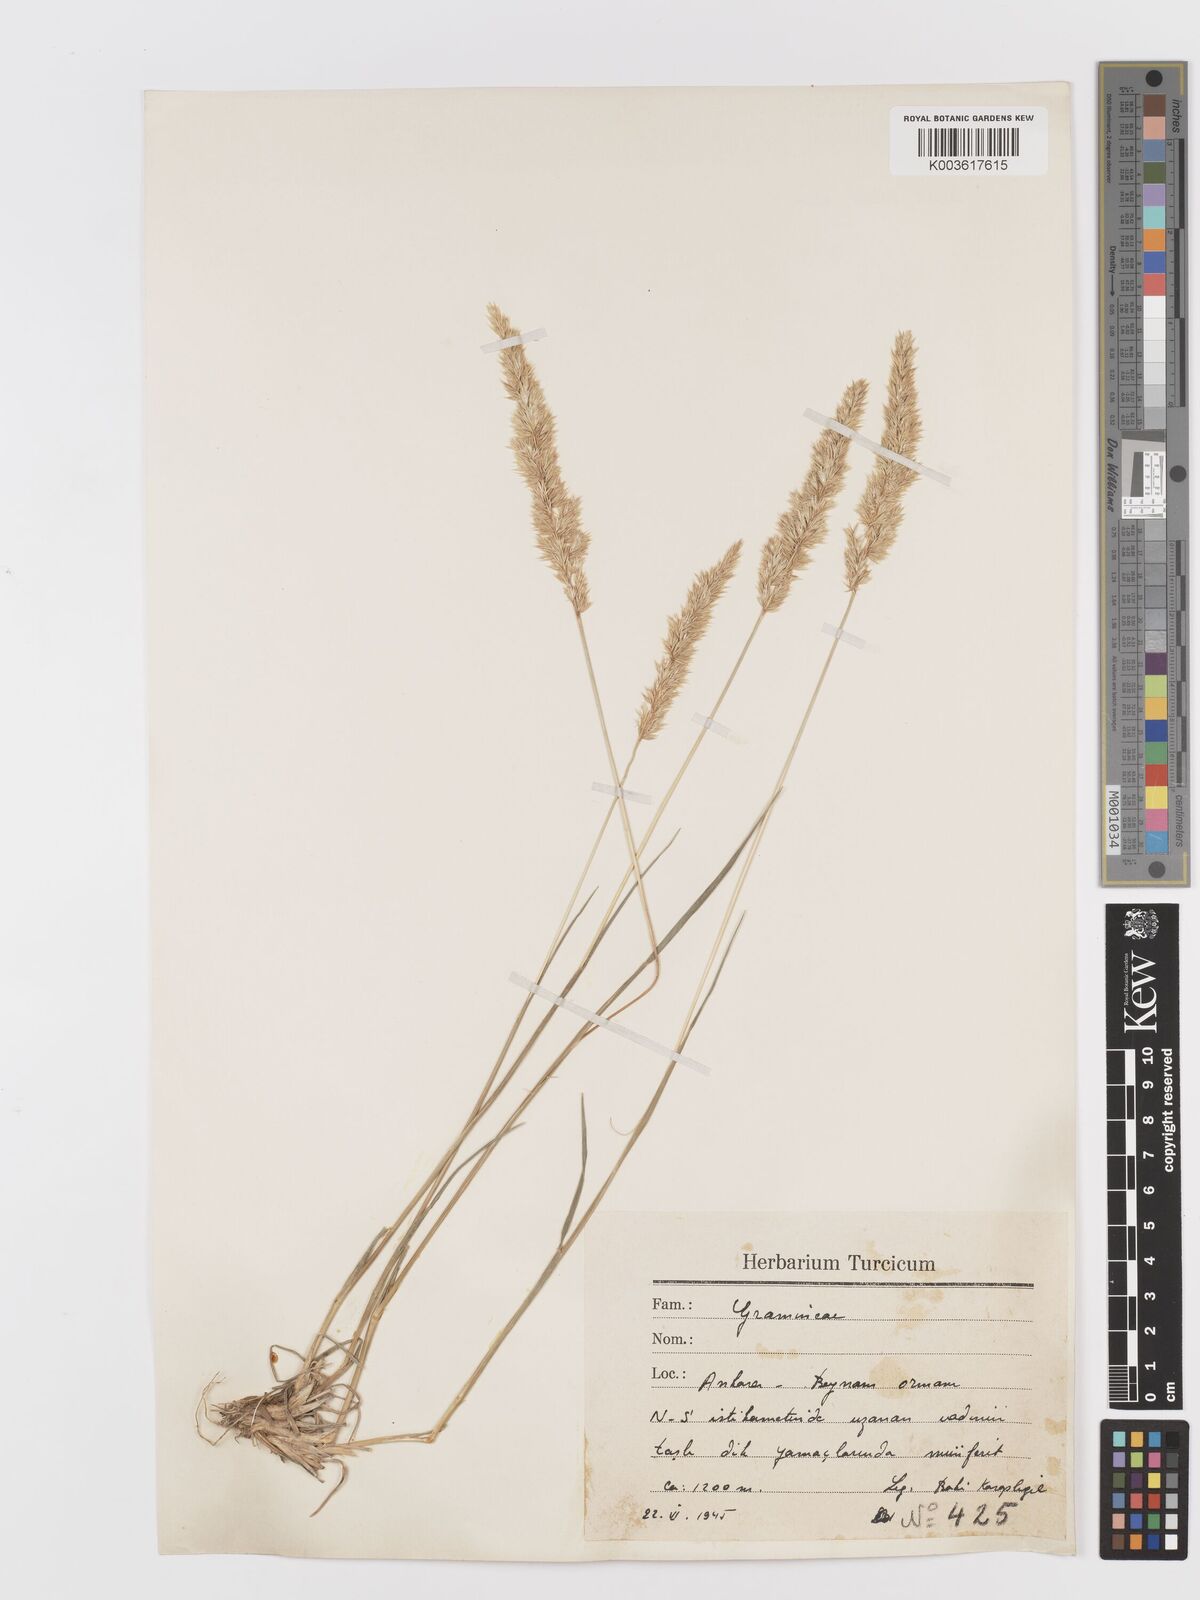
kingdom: Plantae
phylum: Tracheophyta
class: Liliopsida
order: Poales
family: Poaceae
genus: Koeleria
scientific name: Koeleria macrantha
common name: Crested hair-grass
